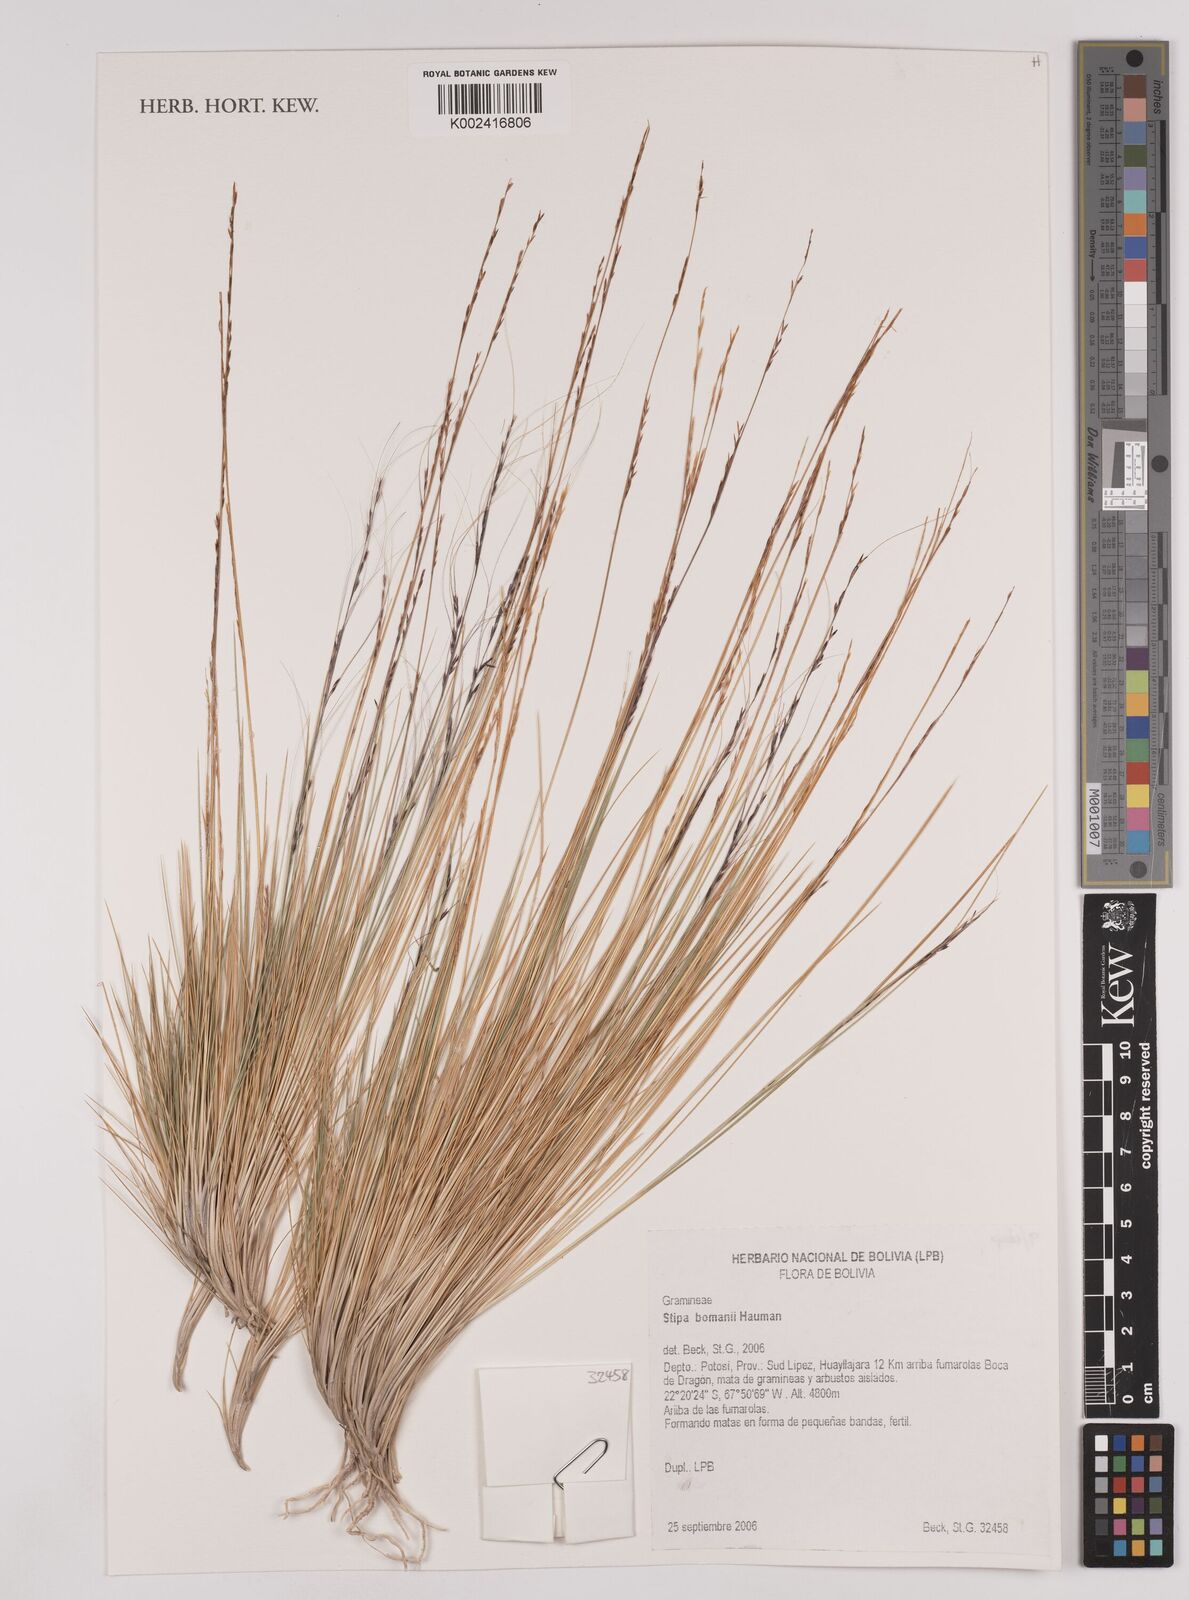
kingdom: Plantae
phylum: Tracheophyta
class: Liliopsida
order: Poales
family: Poaceae
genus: Stipa
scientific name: Stipa bomanii
